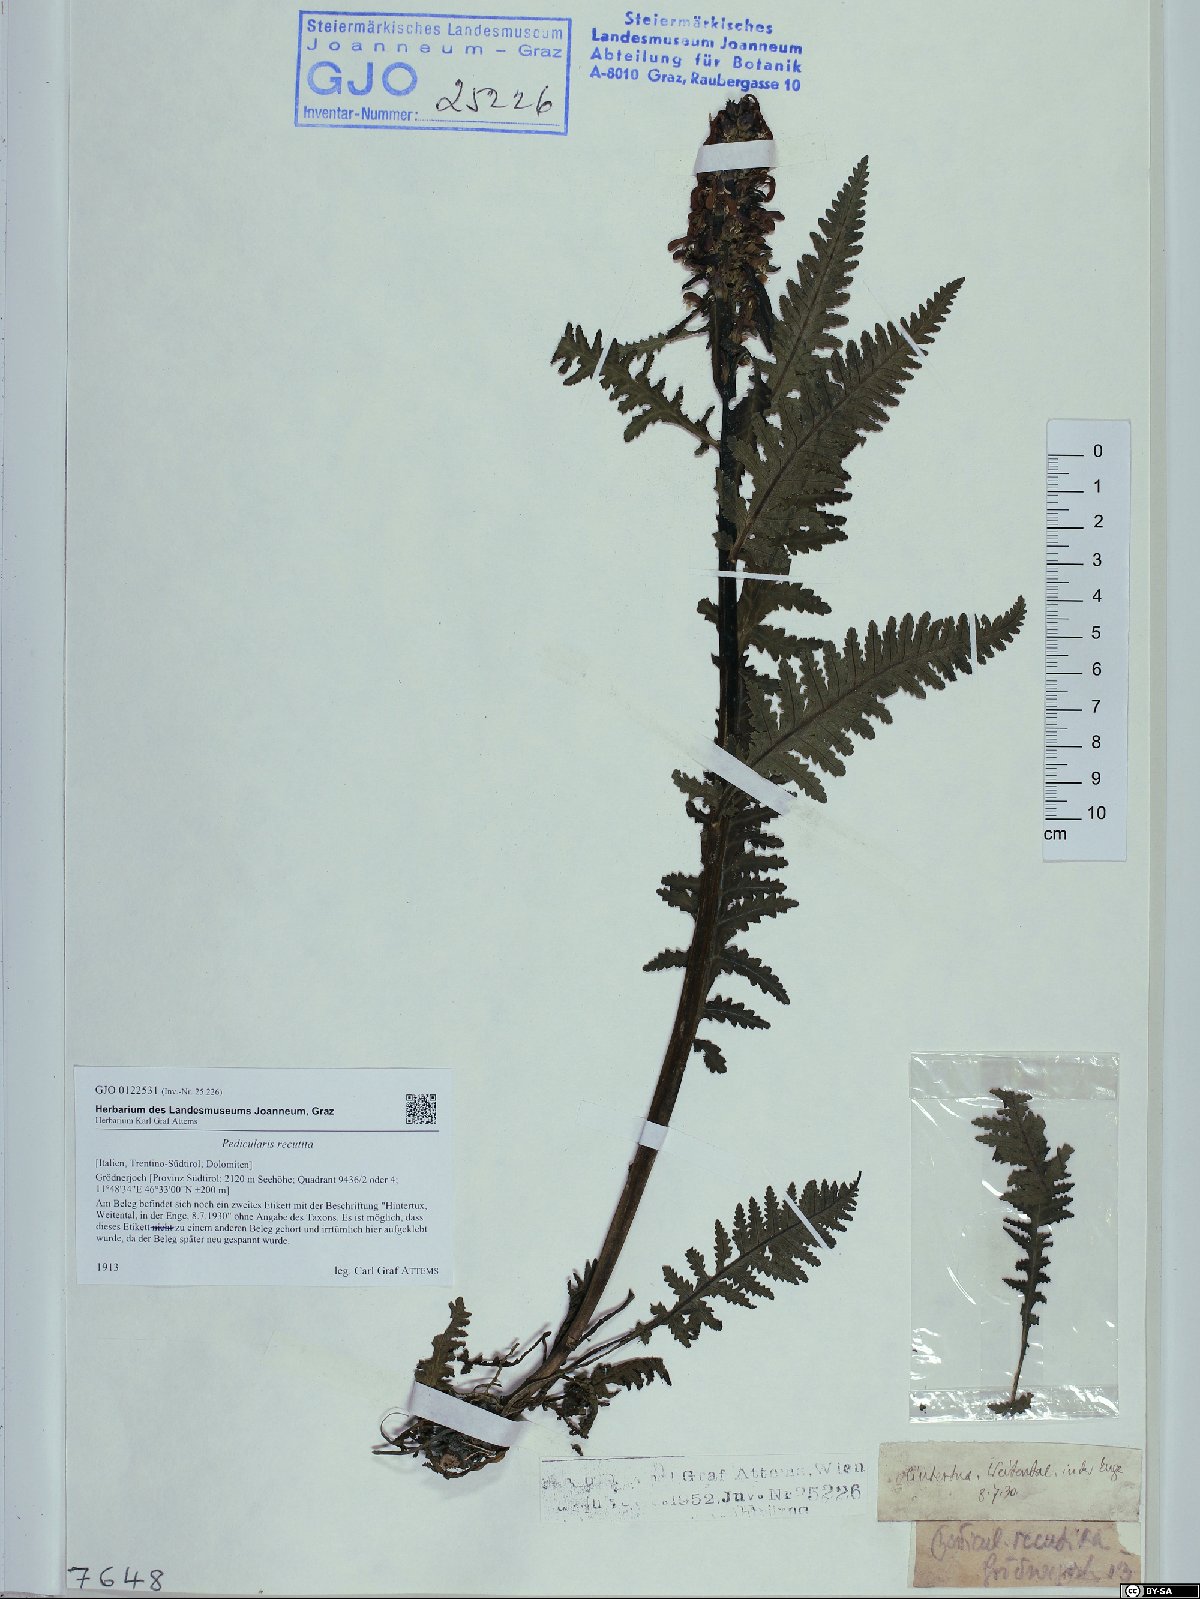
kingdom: Plantae
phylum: Tracheophyta
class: Magnoliopsida
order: Lamiales
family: Orobanchaceae
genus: Pedicularis
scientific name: Pedicularis recutita
